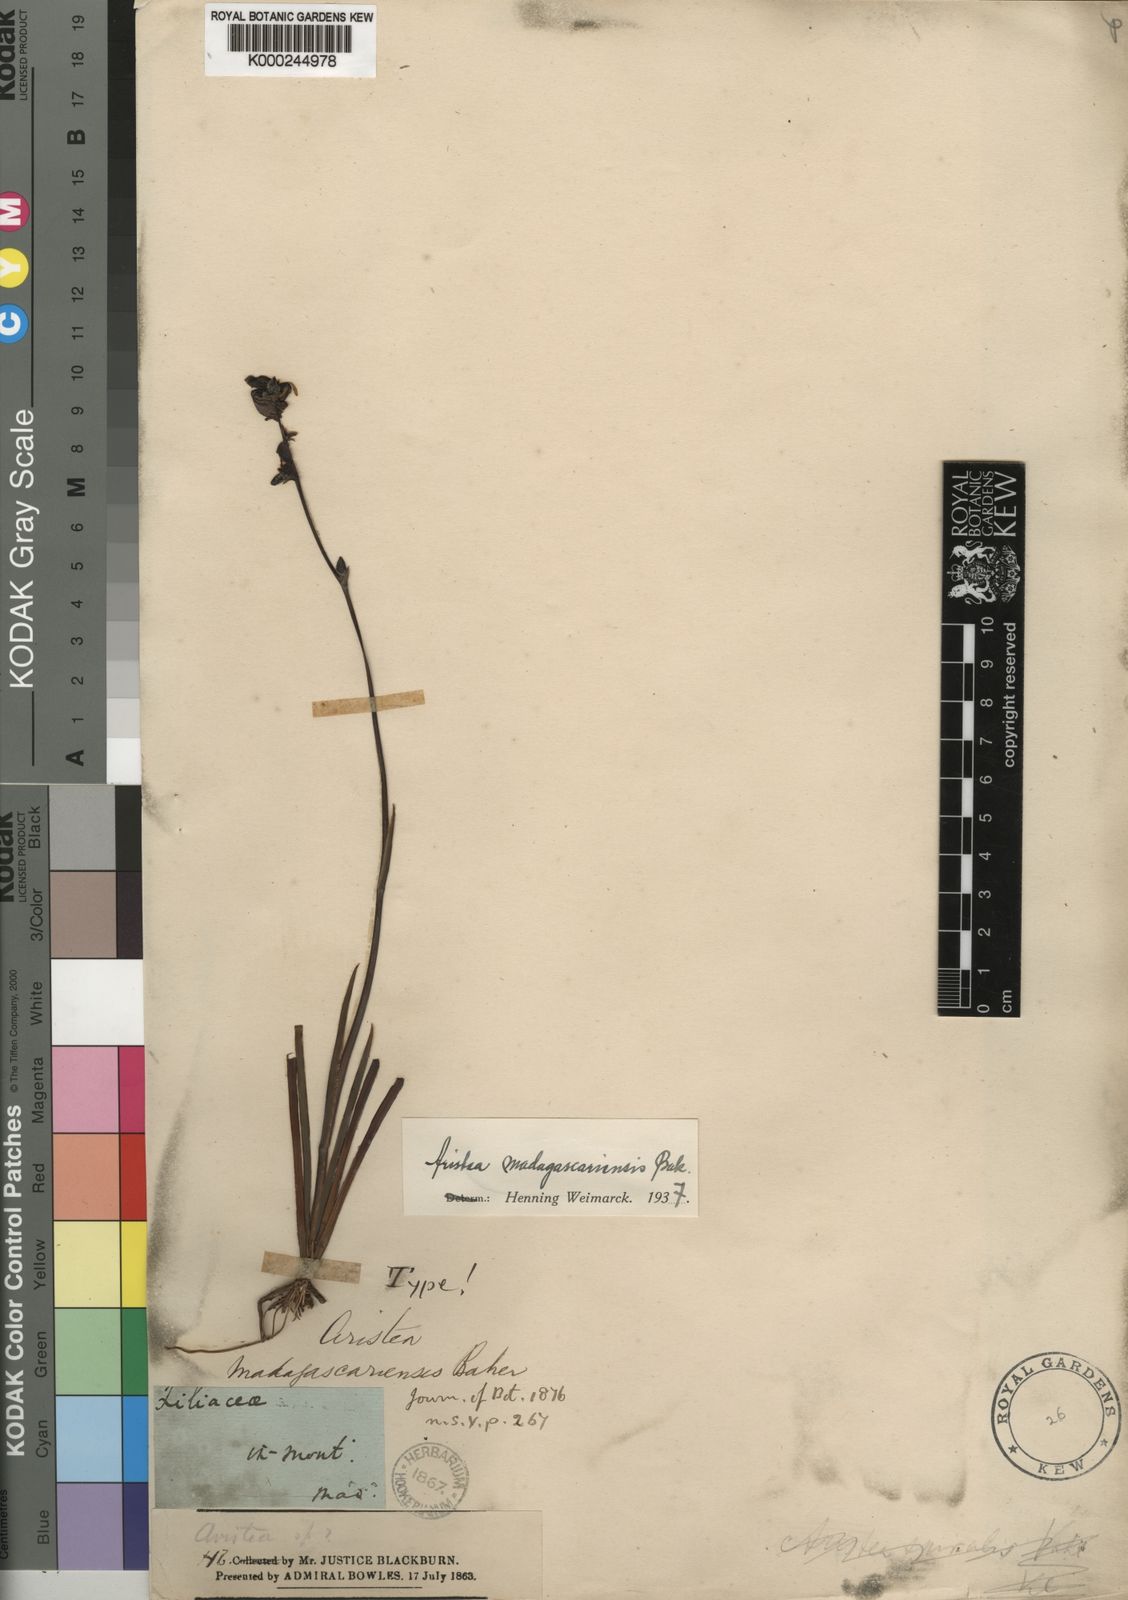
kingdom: Plantae
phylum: Tracheophyta
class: Liliopsida
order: Asparagales
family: Iridaceae
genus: Aristea
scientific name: Aristea madagascariensis
